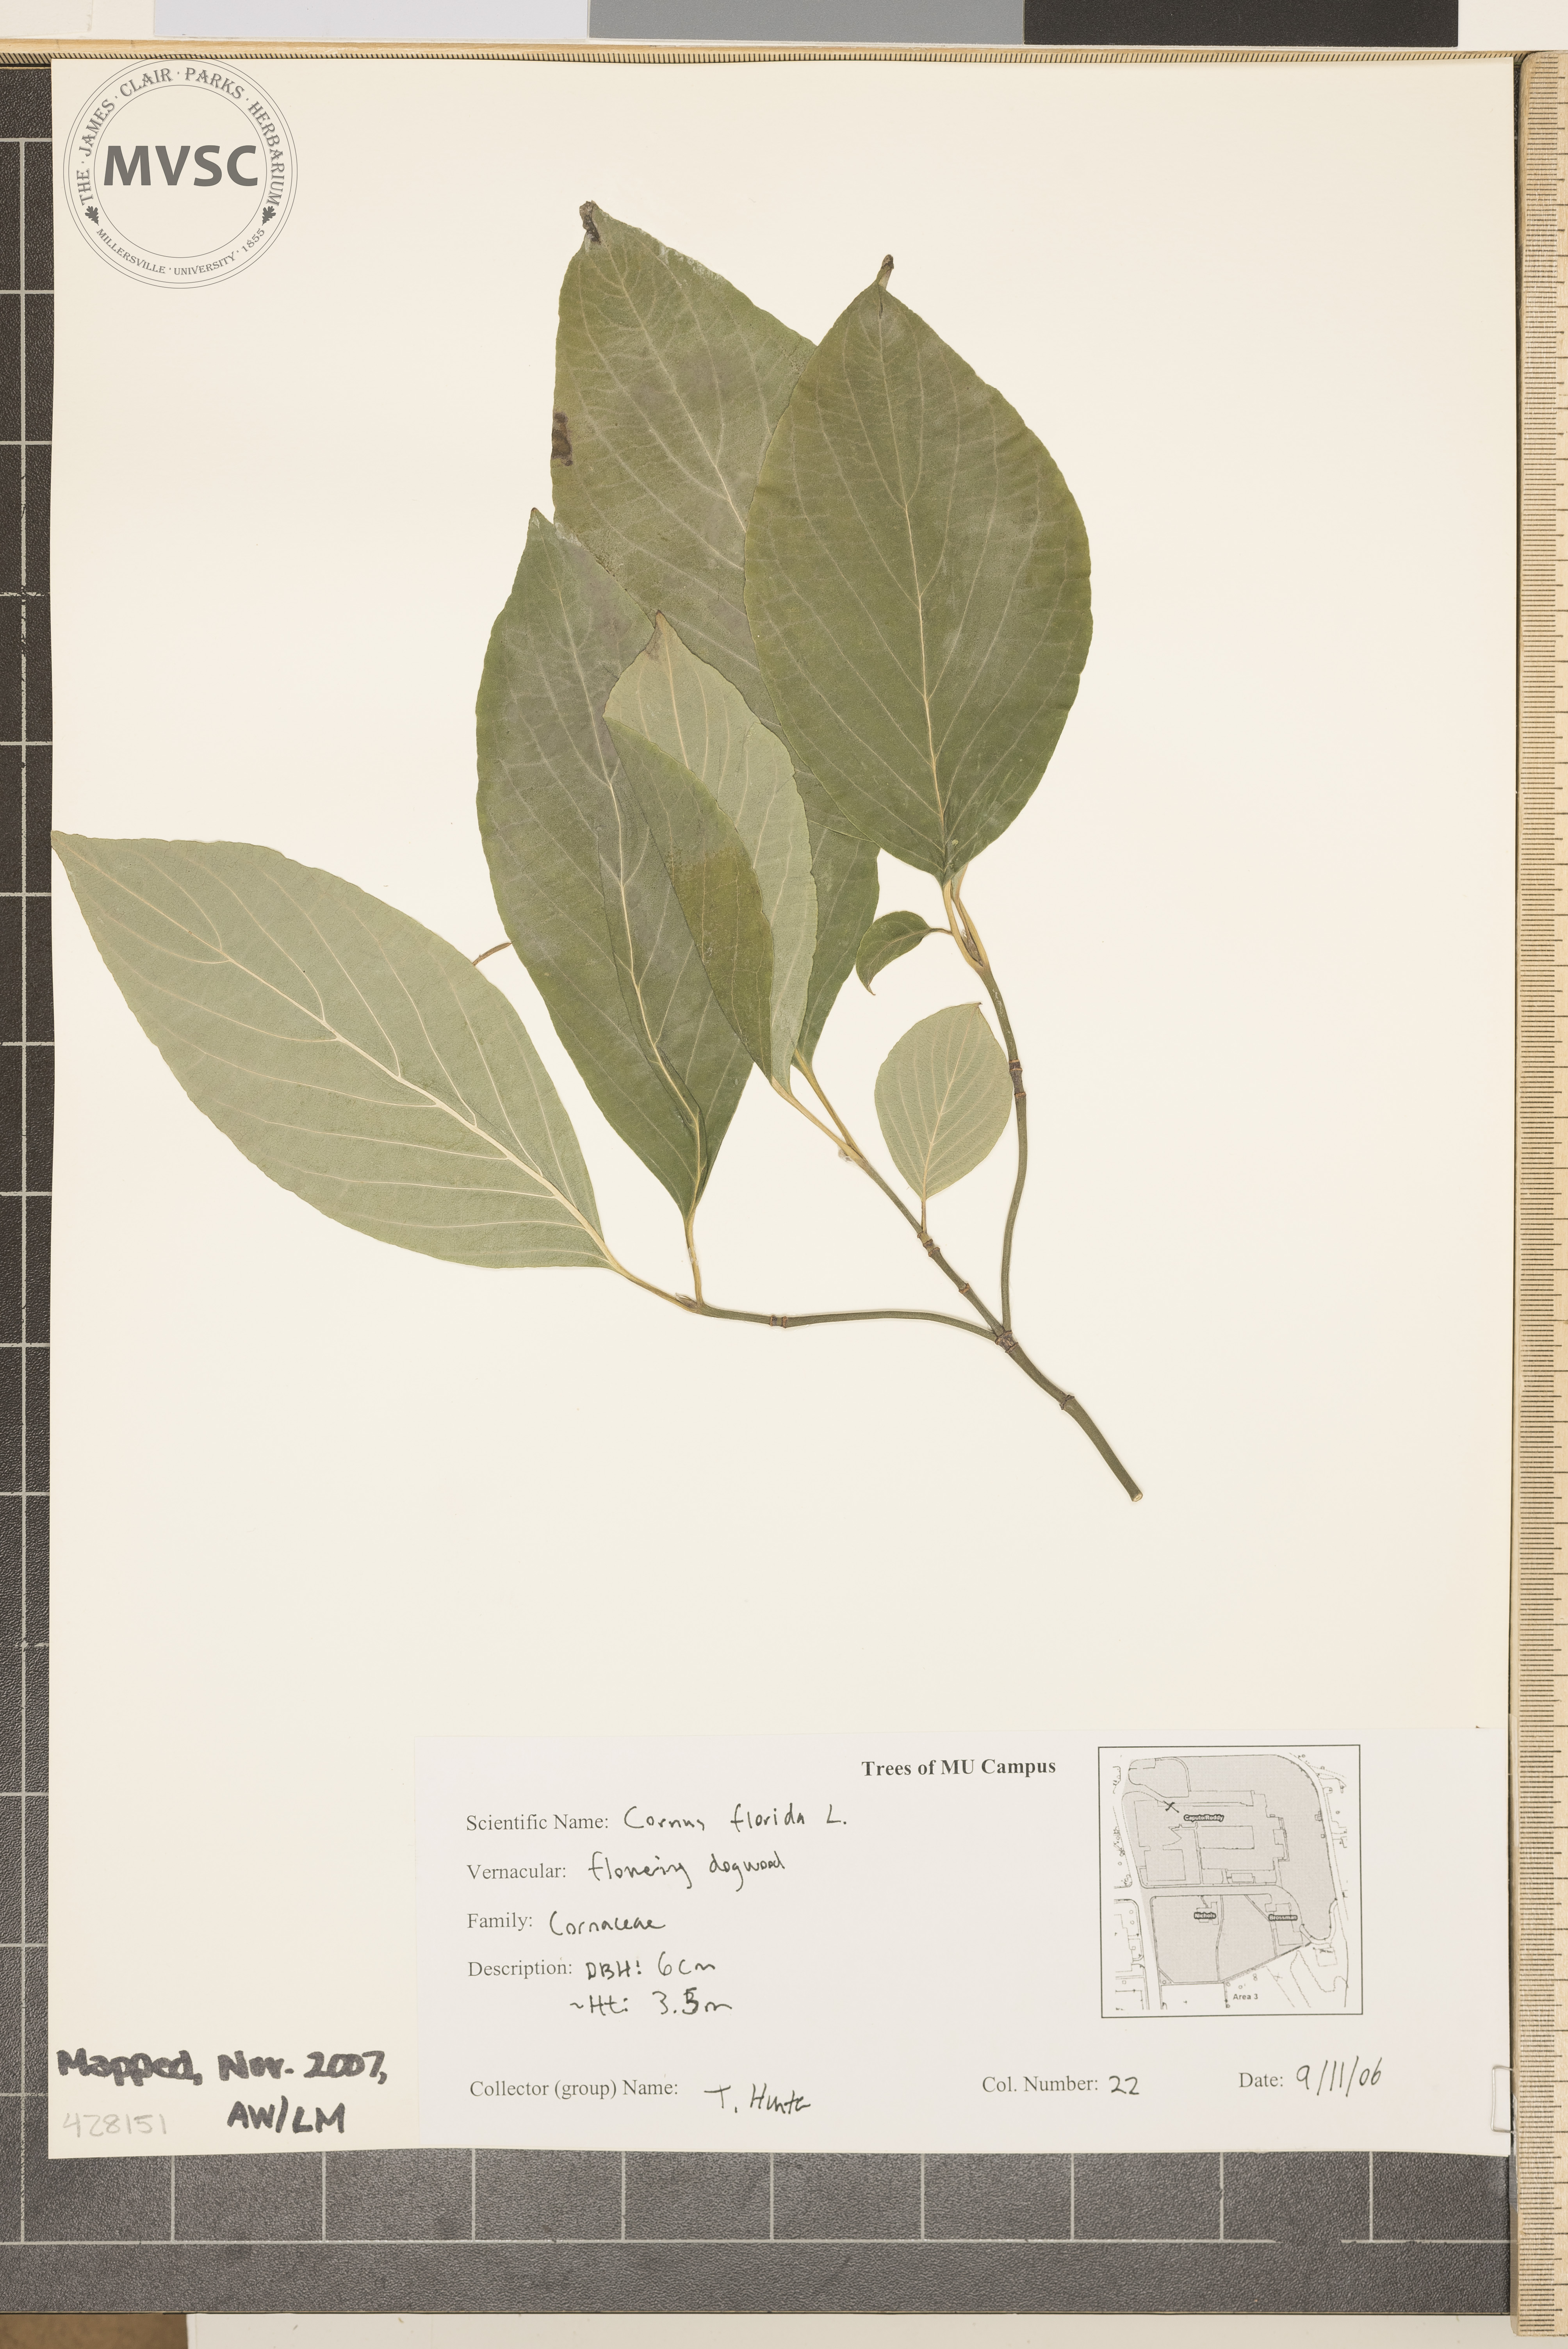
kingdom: Plantae
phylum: Tracheophyta
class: Magnoliopsida
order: Cornales
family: Cornaceae
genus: Cornus
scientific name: Cornus florida
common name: Flowering Dogwood
